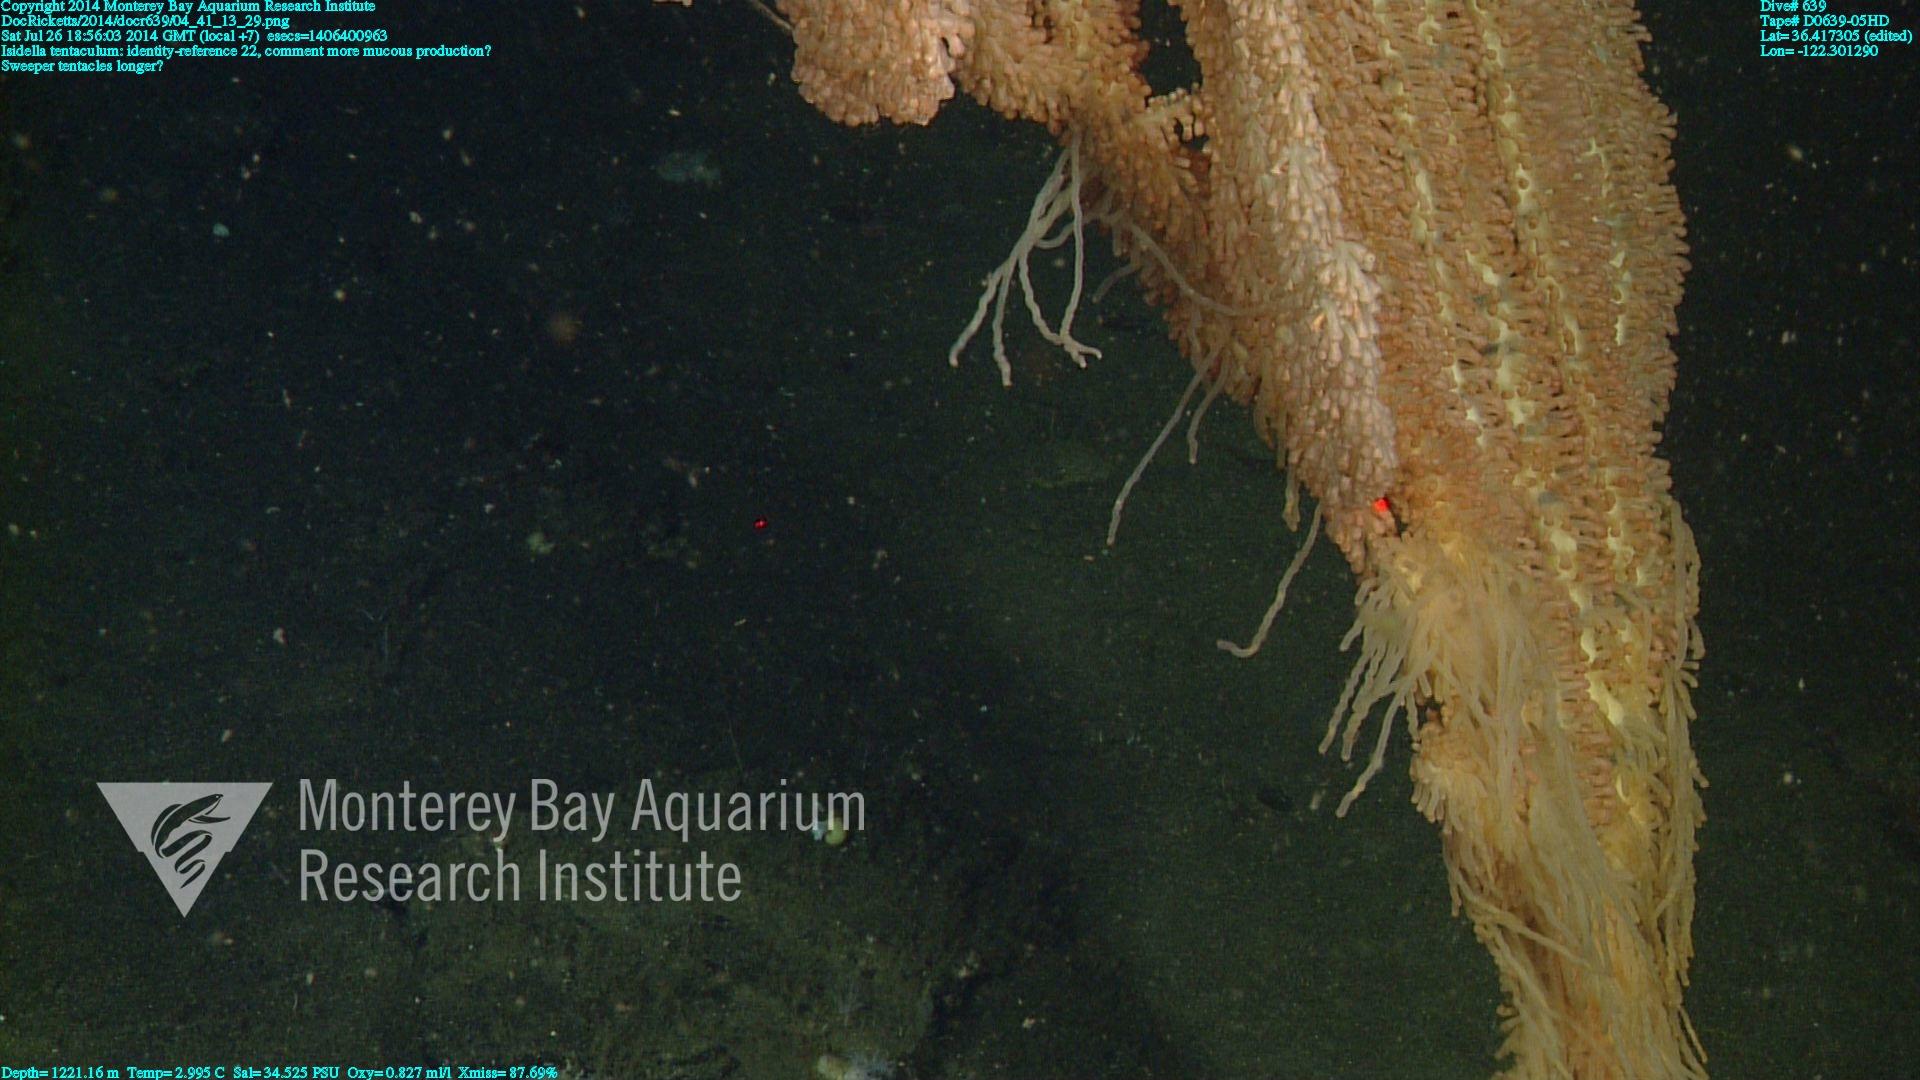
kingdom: Animalia
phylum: Cnidaria
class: Anthozoa
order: Scleralcyonacea
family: Keratoisididae
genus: Isidella
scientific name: Isidella tentaculum
